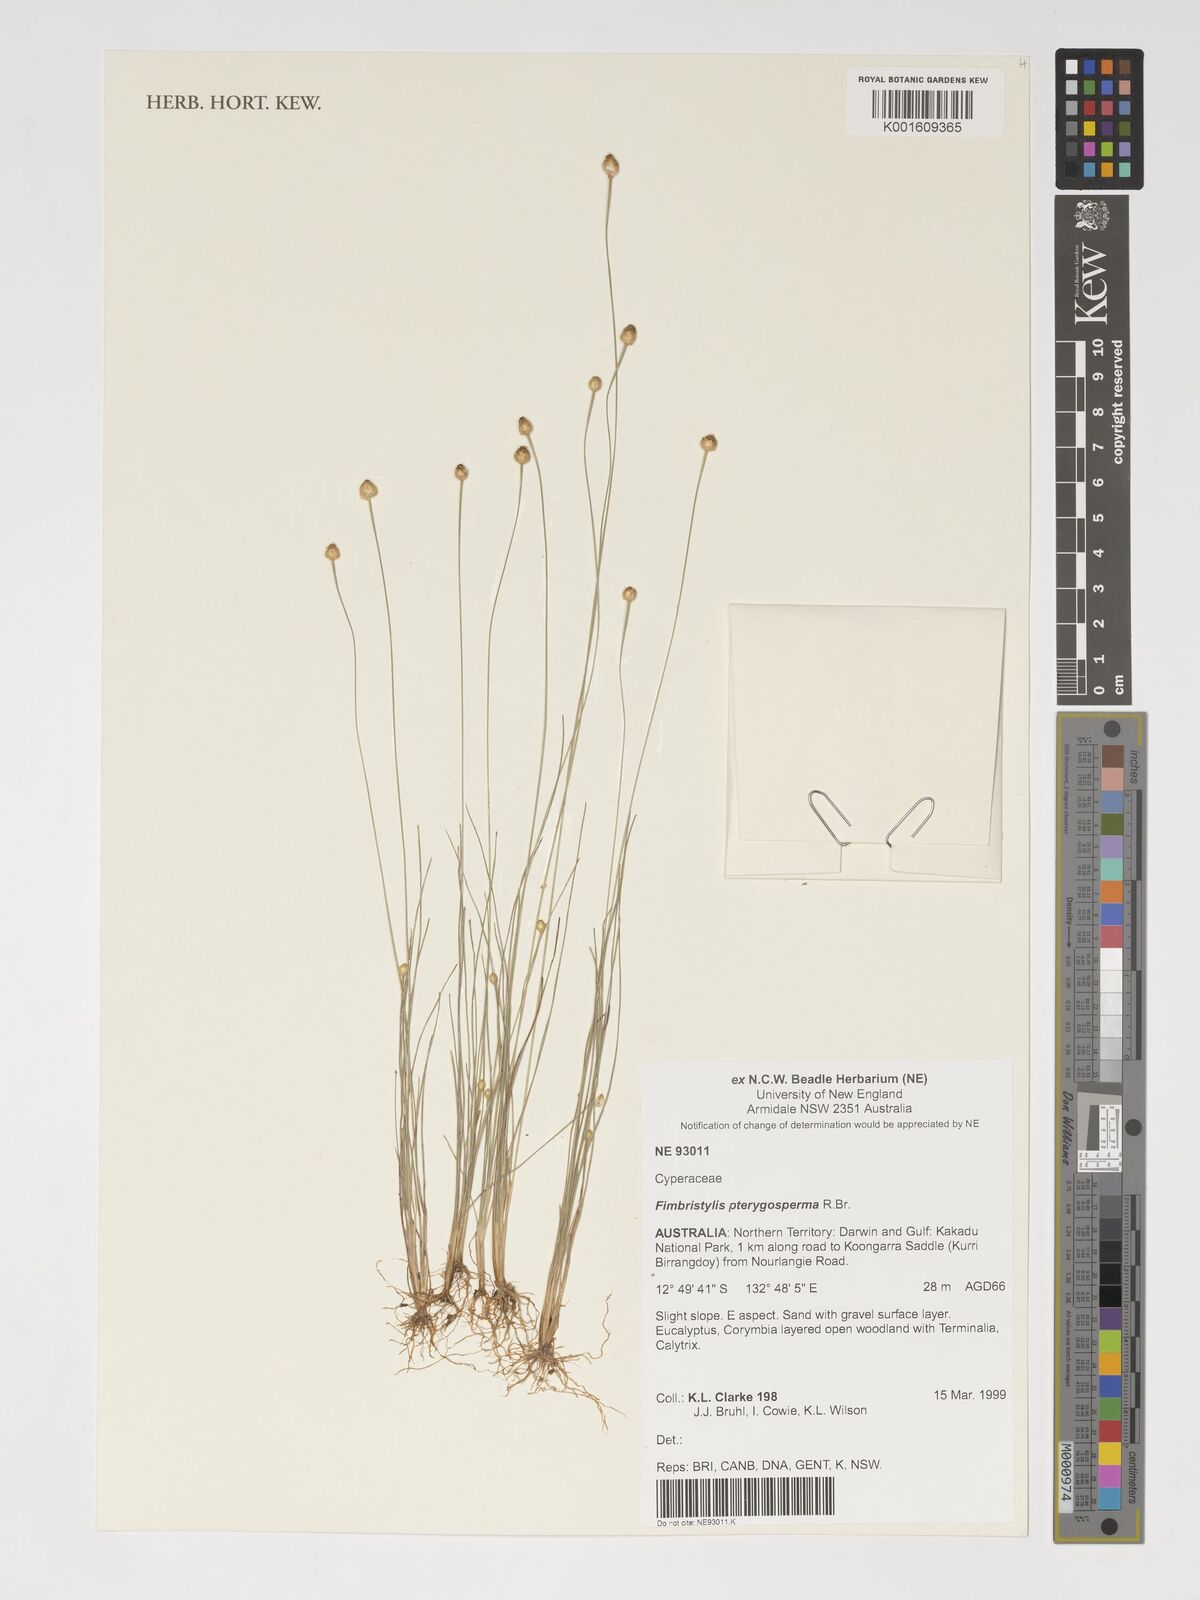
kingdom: Plantae
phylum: Tracheophyta
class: Liliopsida
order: Poales
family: Cyperaceae
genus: Fimbristylis
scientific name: Fimbristylis pterigosperma
